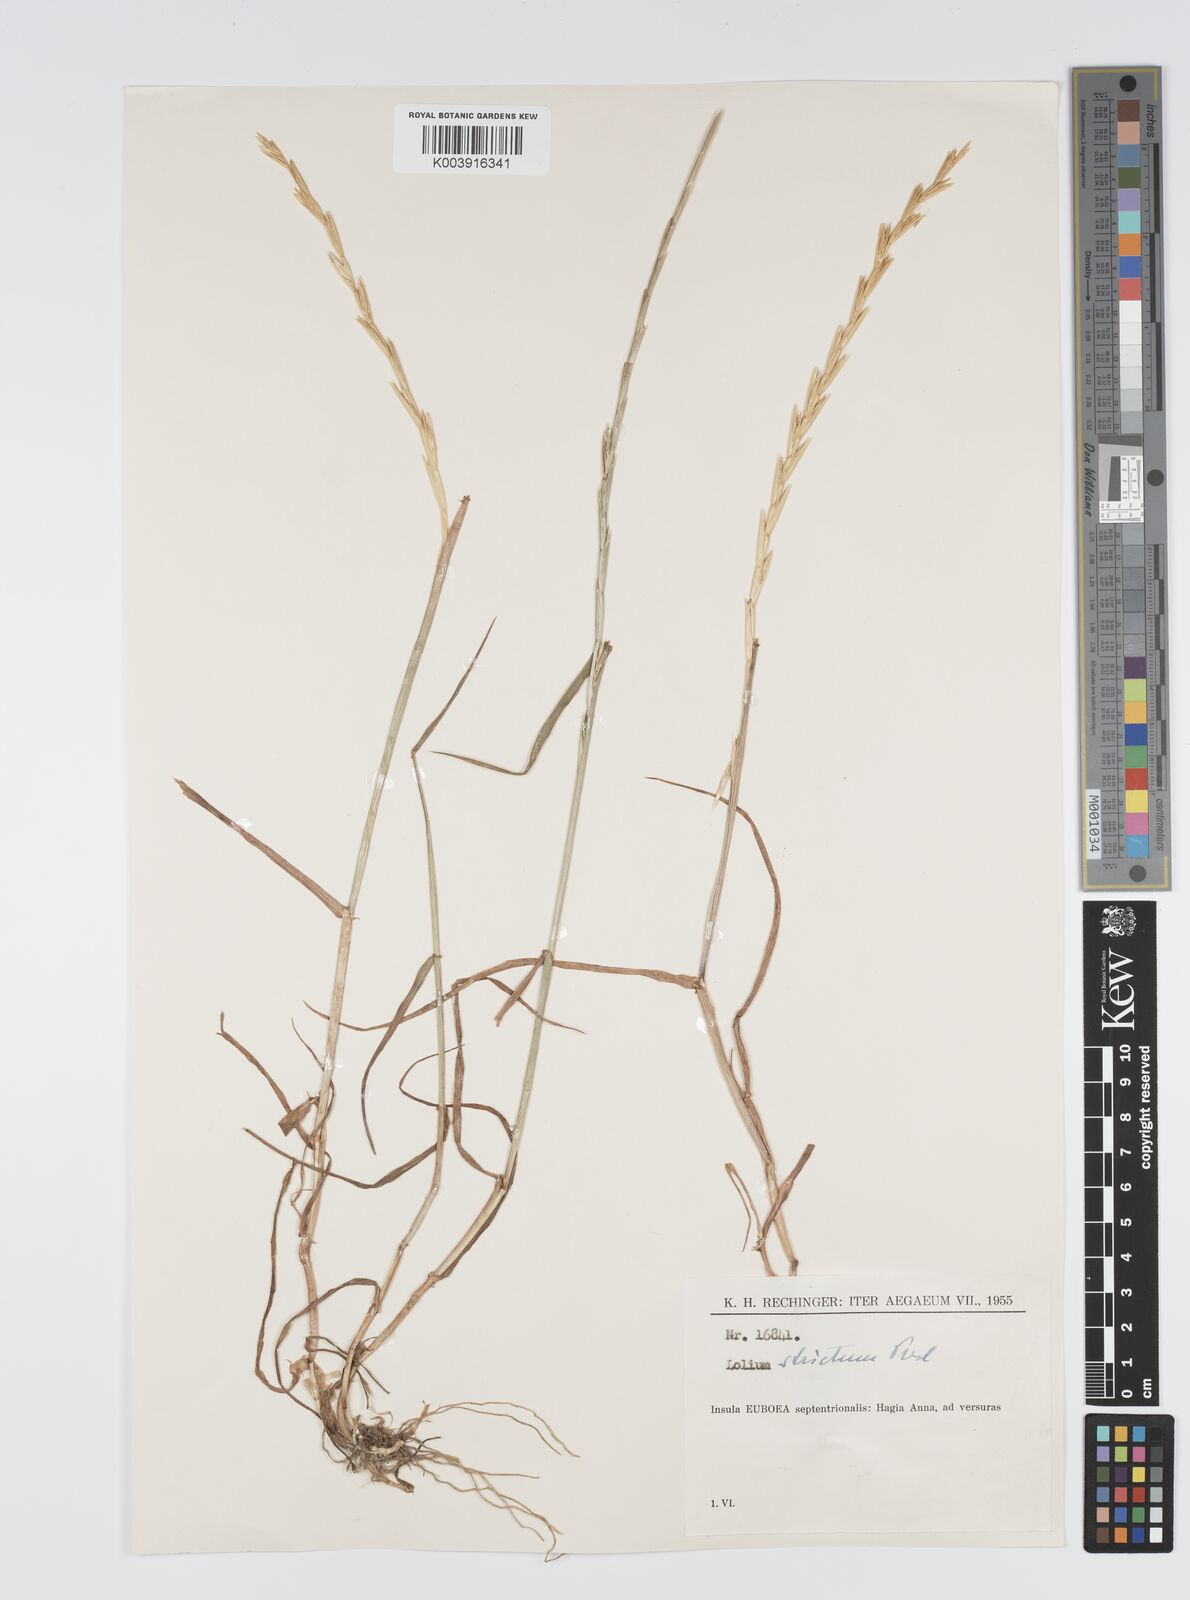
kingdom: Plantae
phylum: Tracheophyta
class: Liliopsida
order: Poales
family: Poaceae
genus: Lolium
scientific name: Lolium rigidum
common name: Wimmera ryegrass
